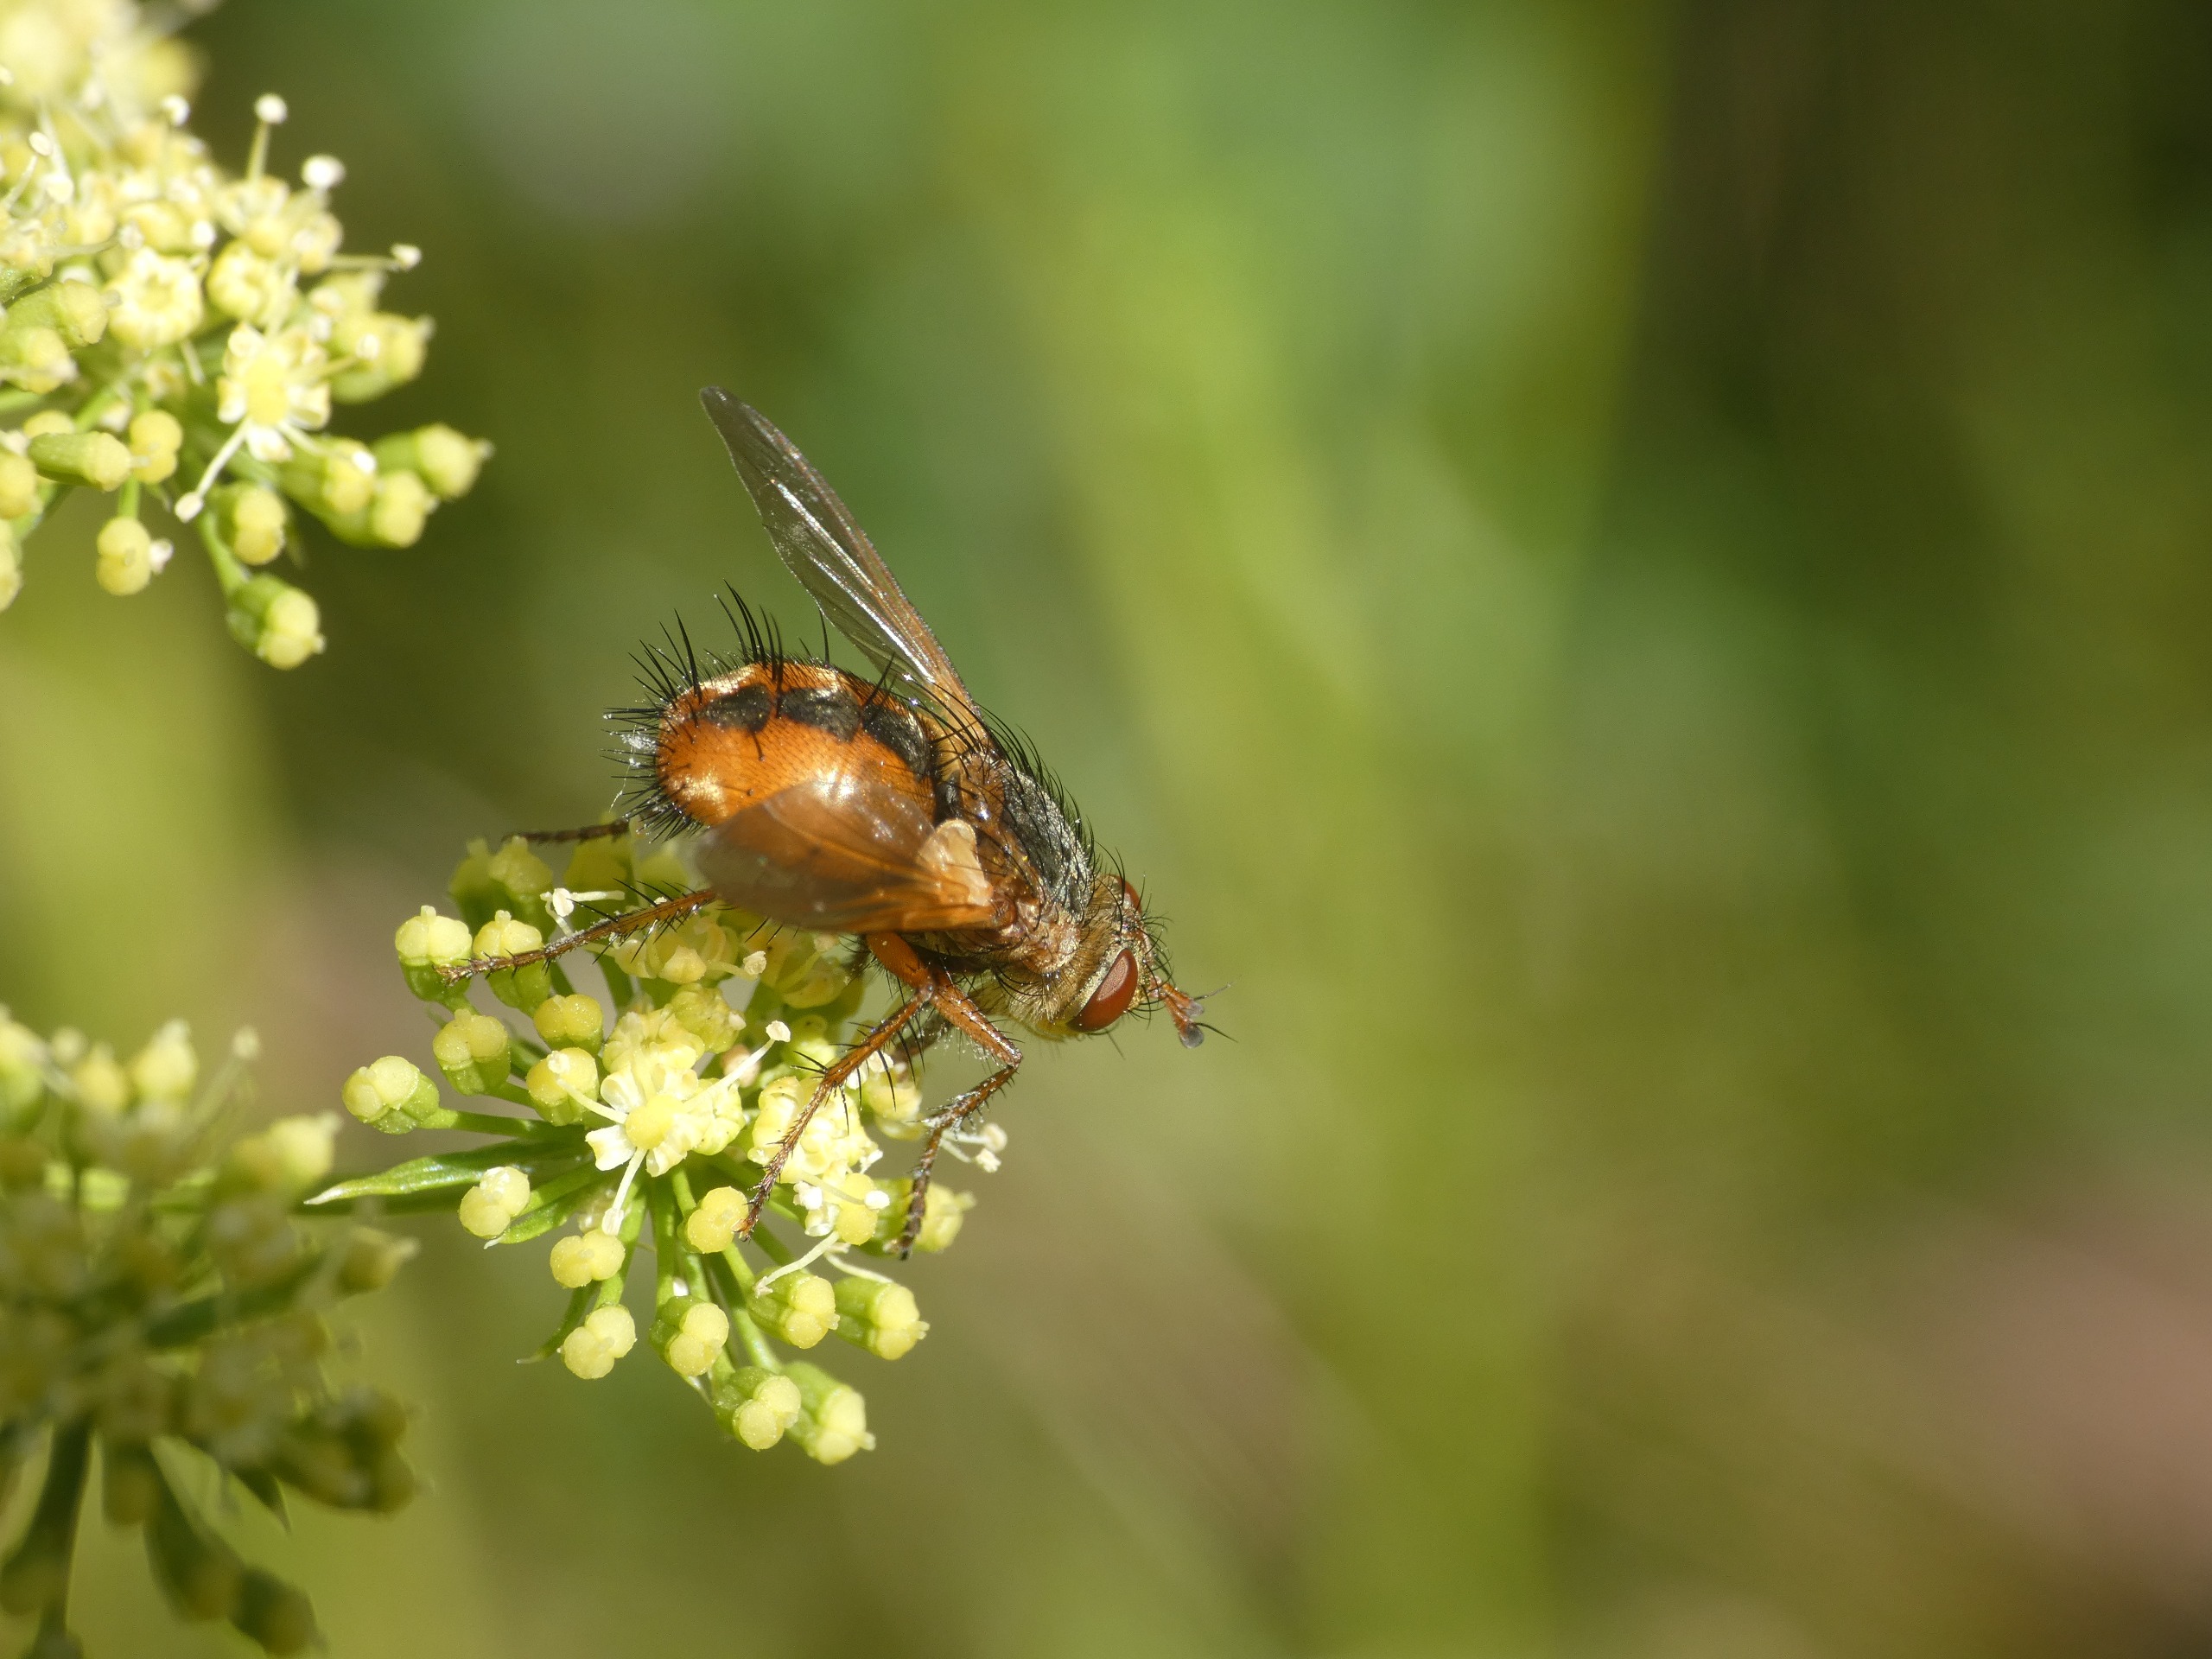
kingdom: Animalia
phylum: Arthropoda
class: Insecta
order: Diptera
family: Tachinidae
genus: Tachina
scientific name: Tachina fera
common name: Mellemfluen oskar
